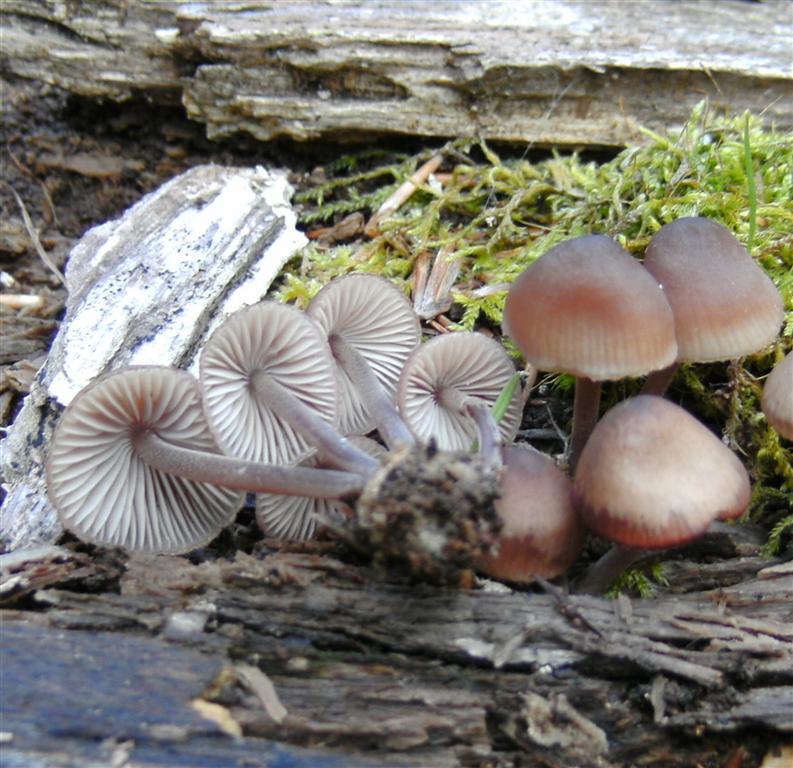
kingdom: Fungi
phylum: Basidiomycota
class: Agaricomycetes
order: Agaricales
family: Mycenaceae
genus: Mycena
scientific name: Mycena haematopus
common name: blødende huesvamp
